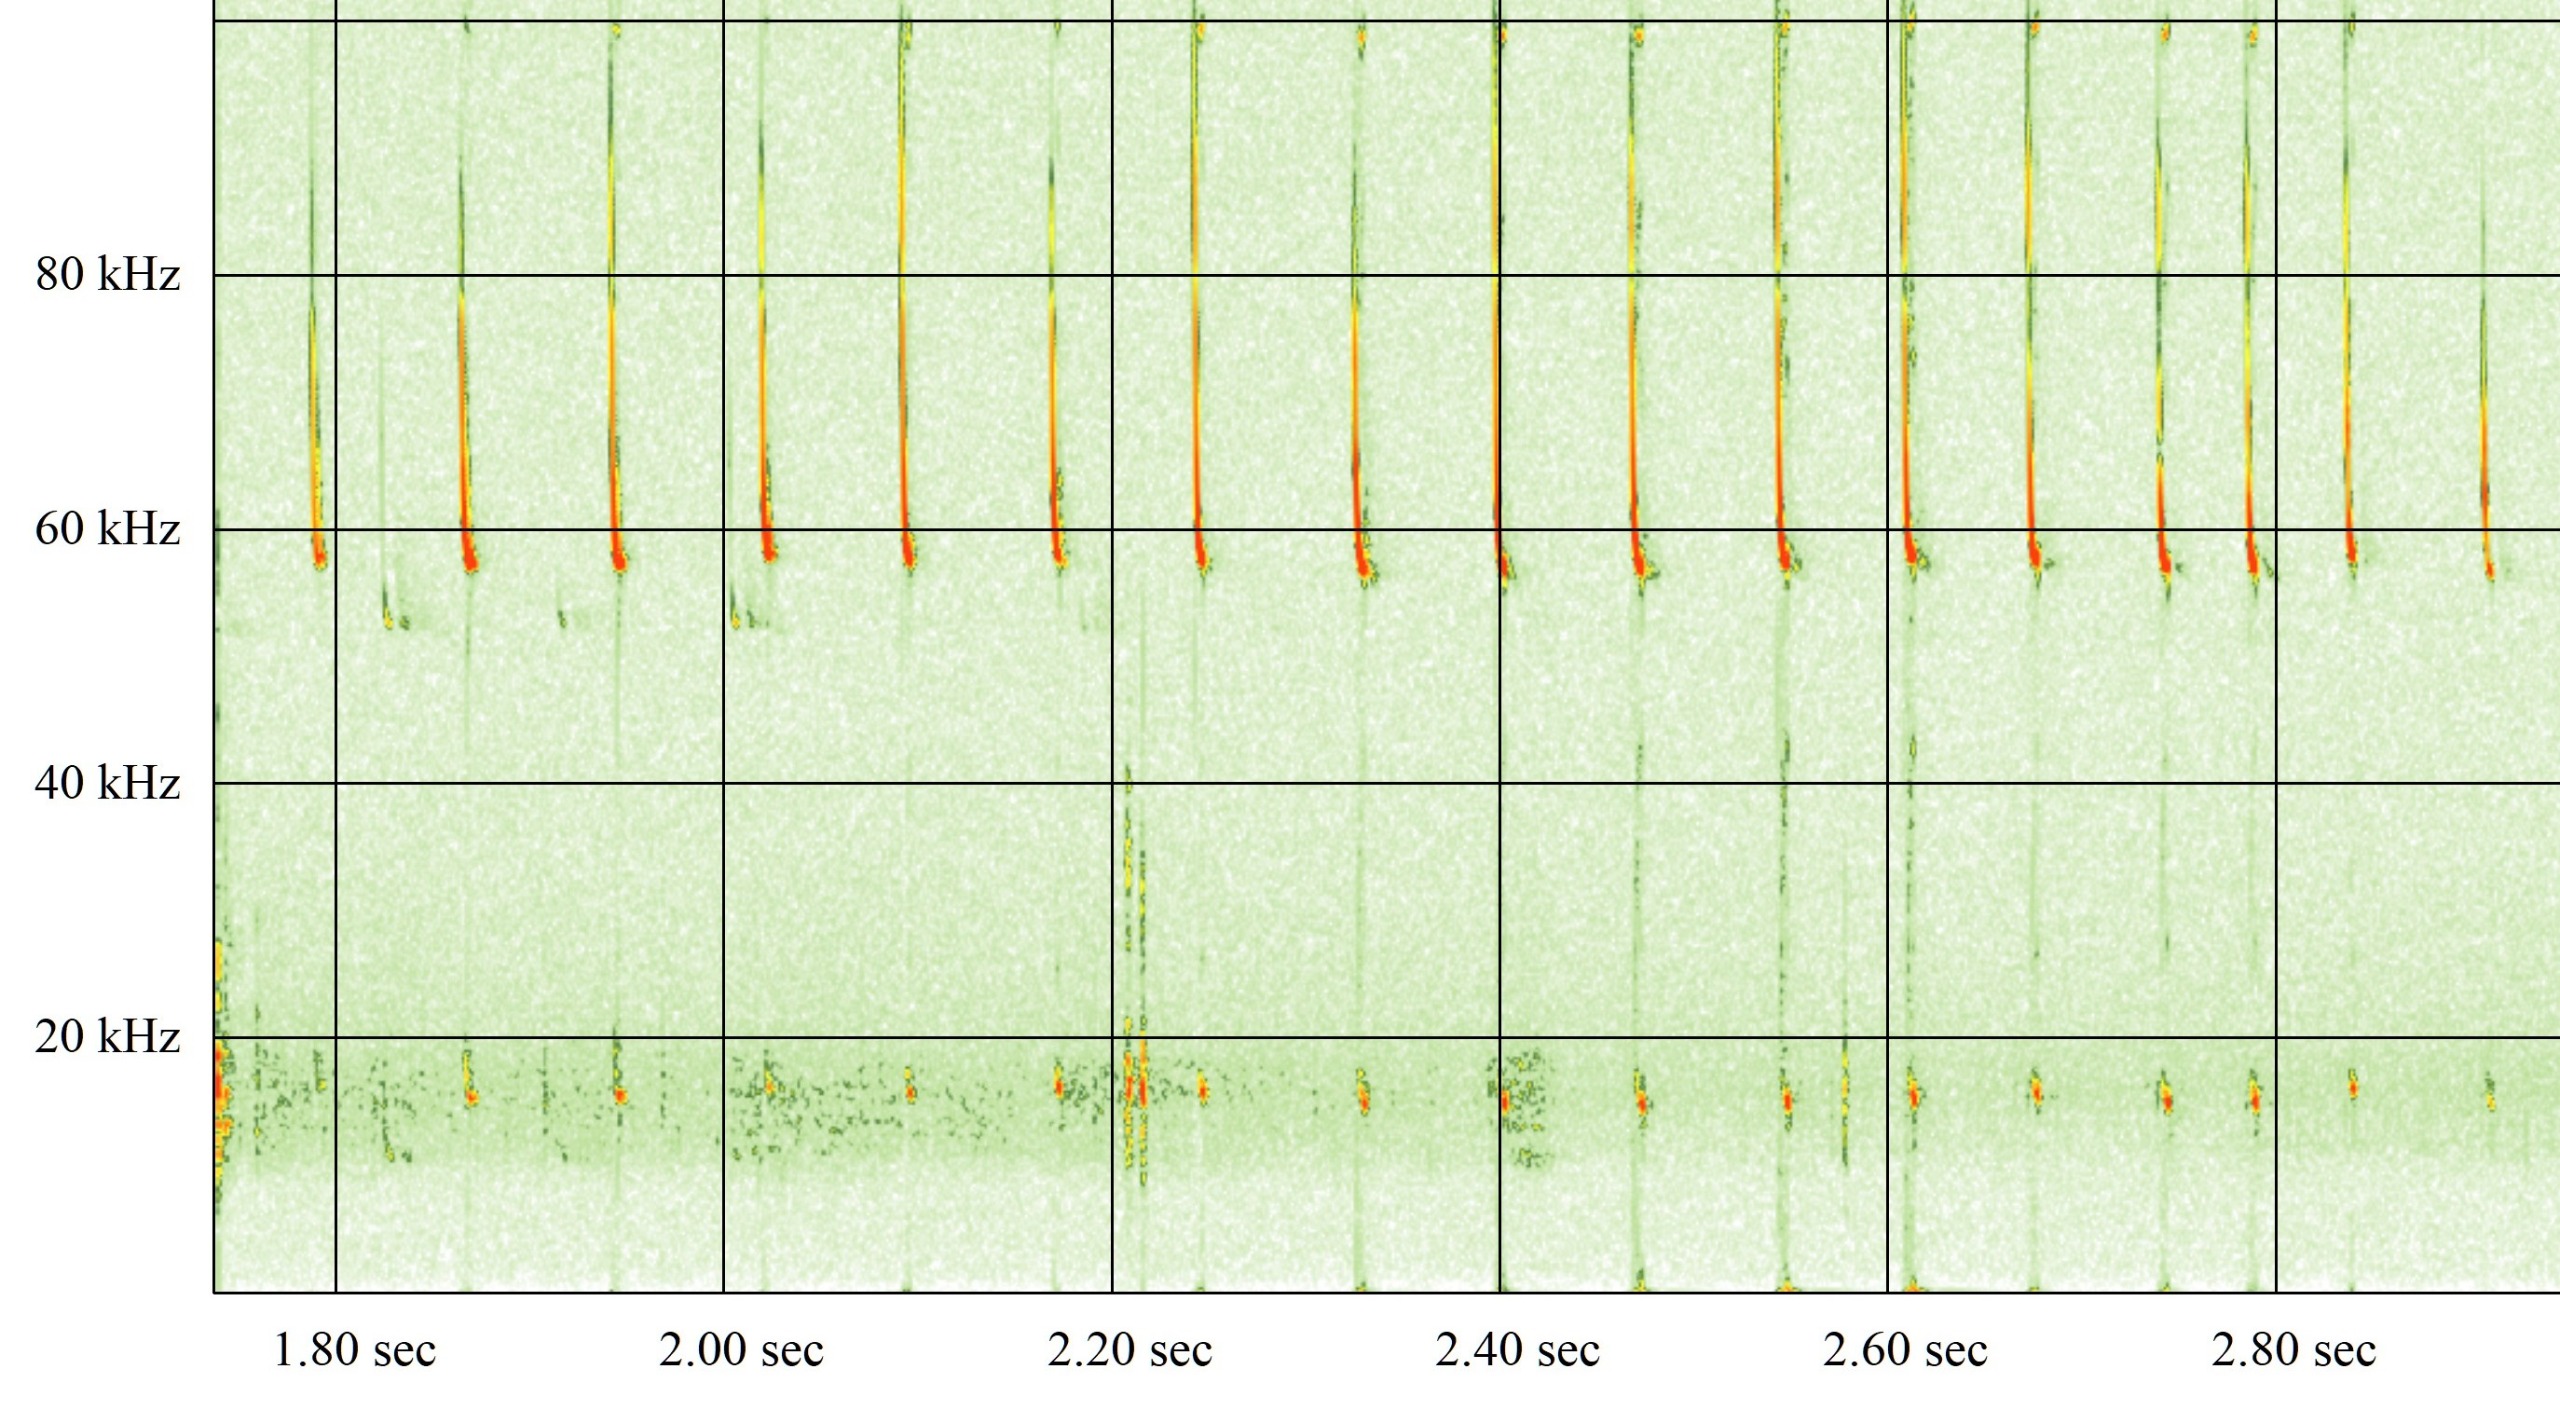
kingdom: Animalia
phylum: Chordata
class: Mammalia
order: Chiroptera
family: Vespertilionidae
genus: Pipistrellus
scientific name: Pipistrellus pygmaeus
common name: Dværgflagermus
